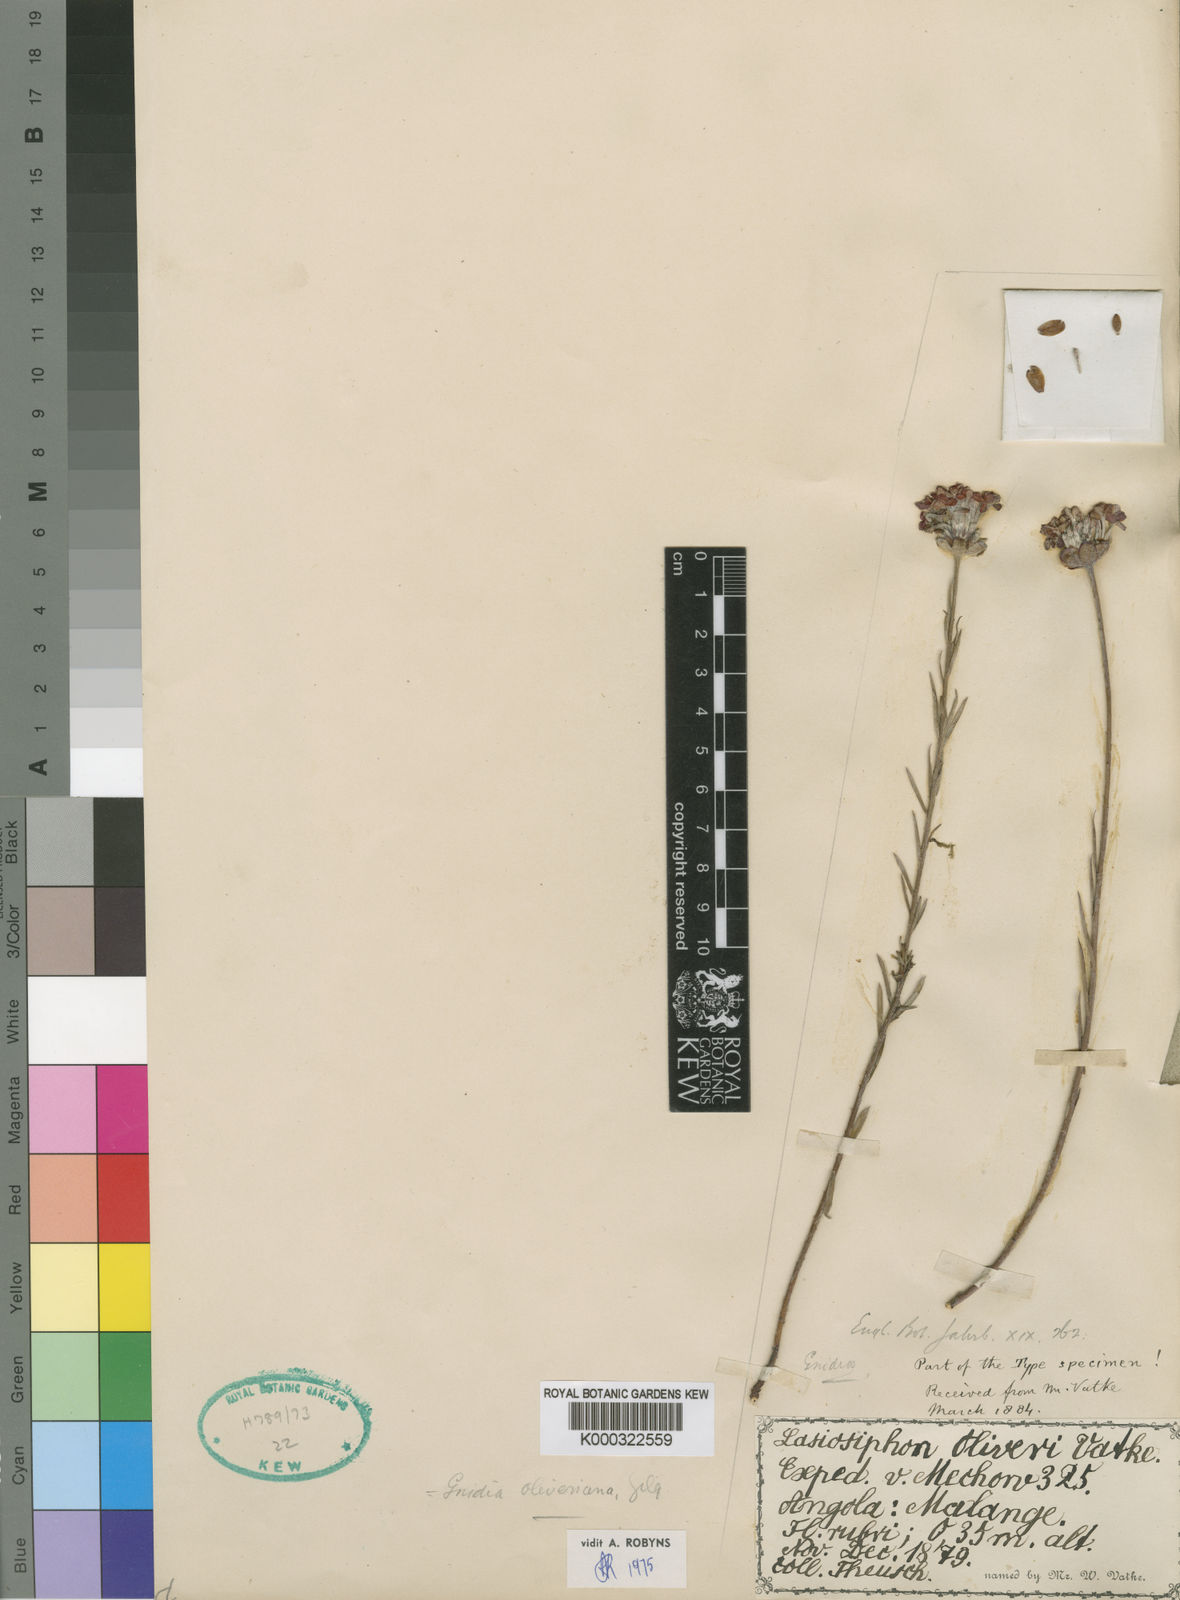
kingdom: Plantae
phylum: Tracheophyta
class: Magnoliopsida
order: Malvales
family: Thymelaeaceae
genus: Gnidia
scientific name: Gnidia oliveriana
